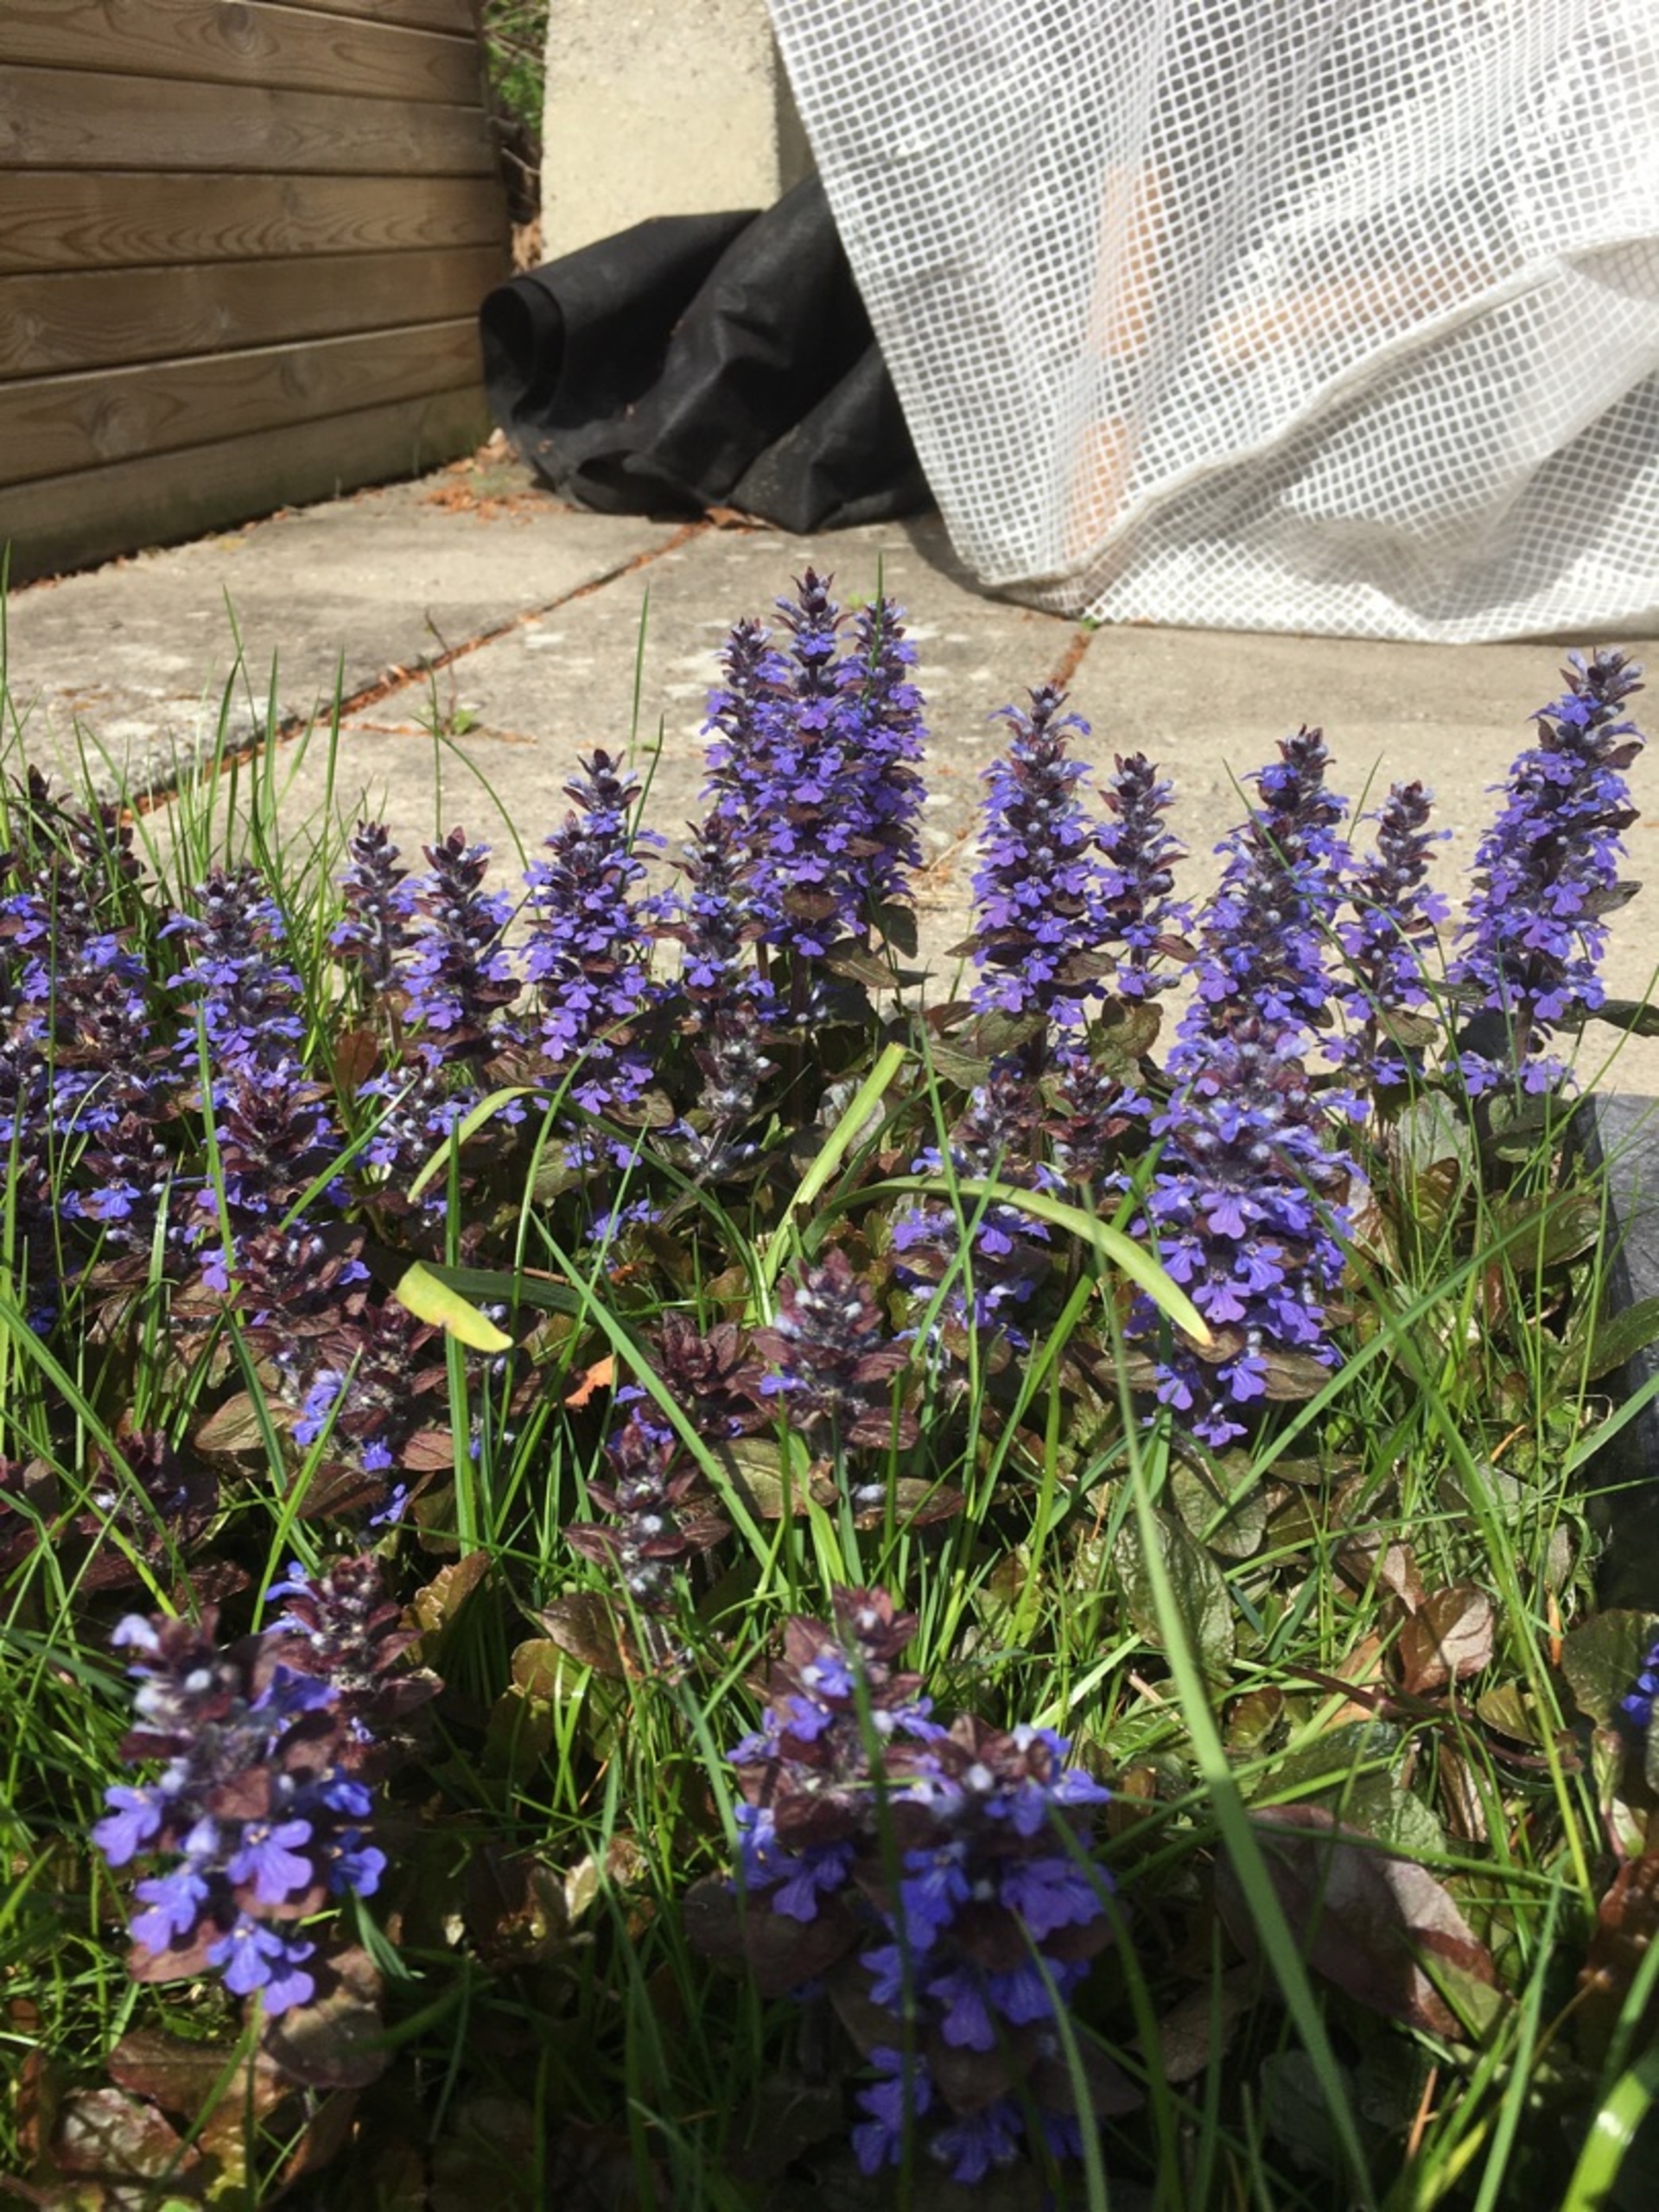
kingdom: Plantae
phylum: Tracheophyta
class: Magnoliopsida
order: Lamiales
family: Lamiaceae
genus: Ajuga
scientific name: Ajuga reptans
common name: Krybende læbeløs
